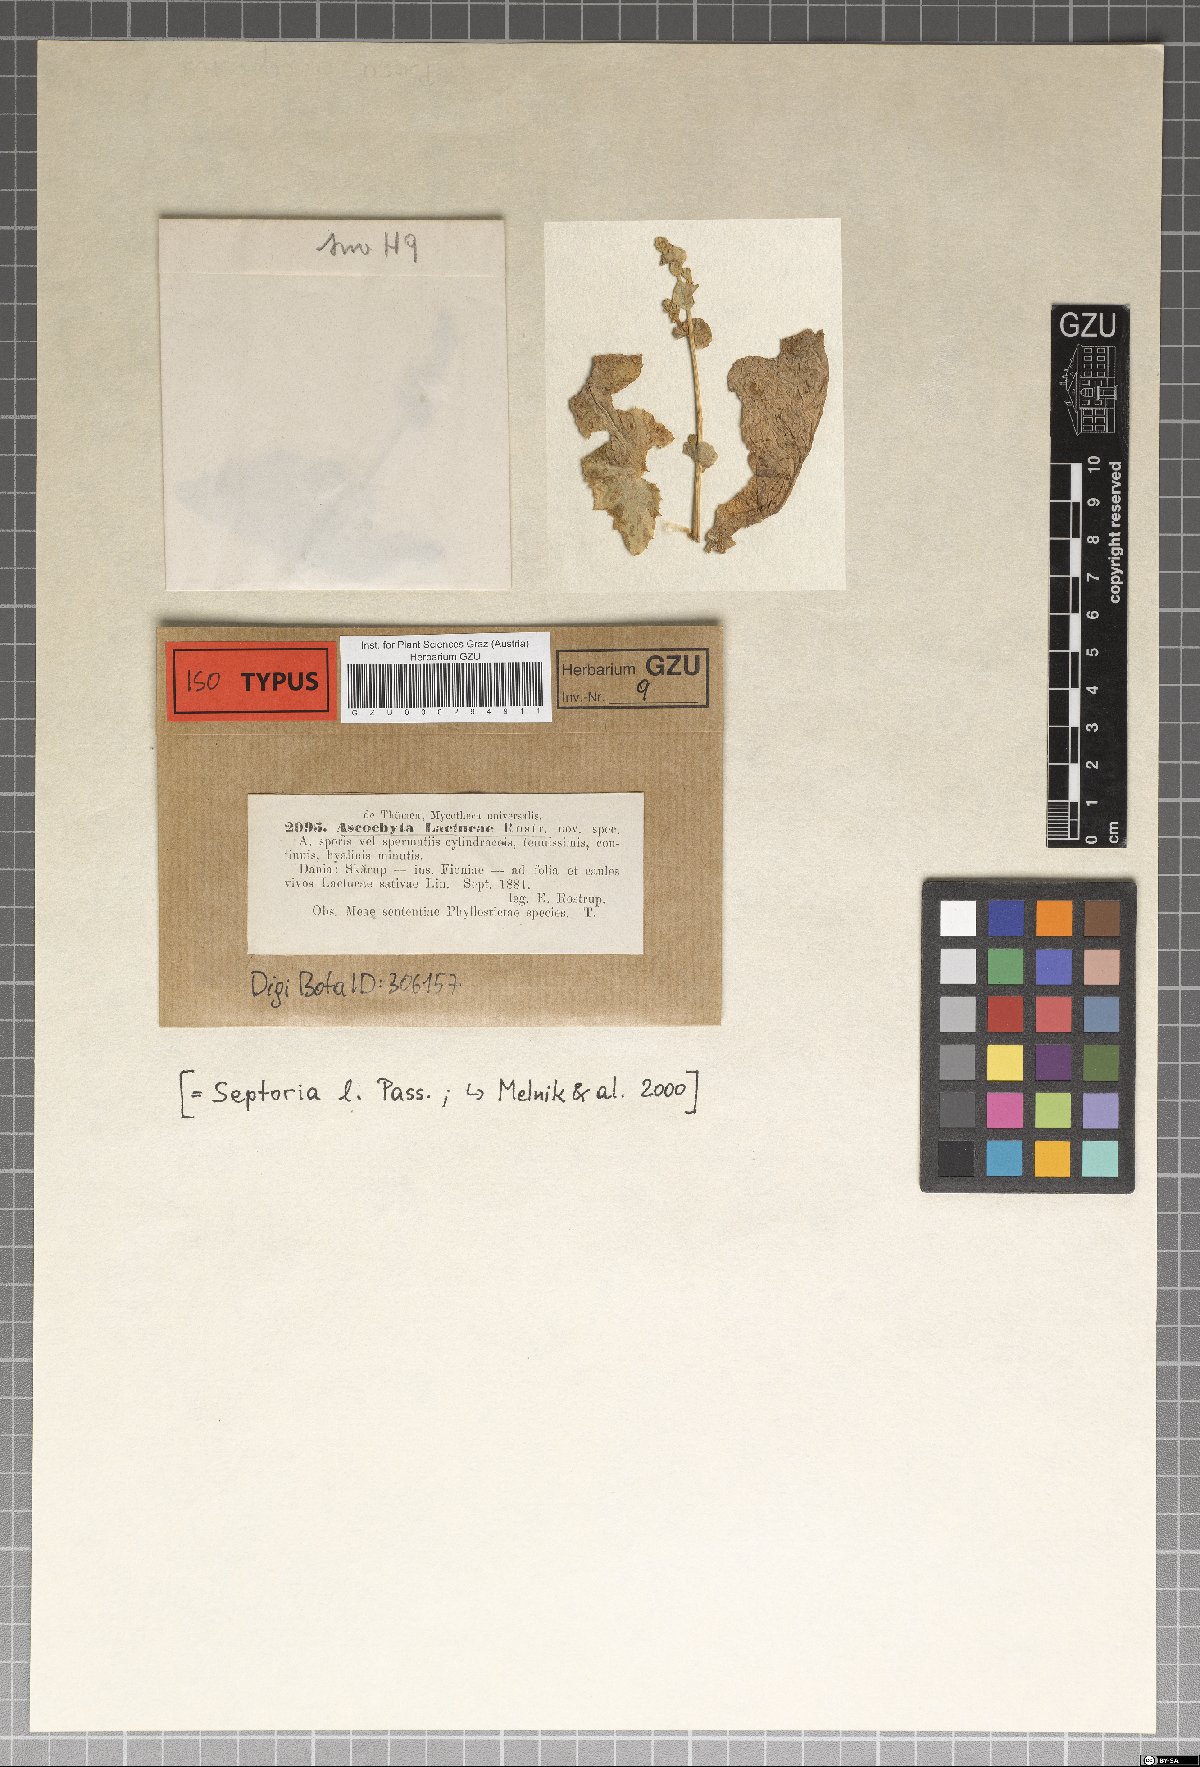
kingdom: Fungi
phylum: Ascomycota
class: Dothideomycetes
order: Mycosphaerellales
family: Mycosphaerellaceae
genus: Septoria
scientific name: Septoria lactucae
